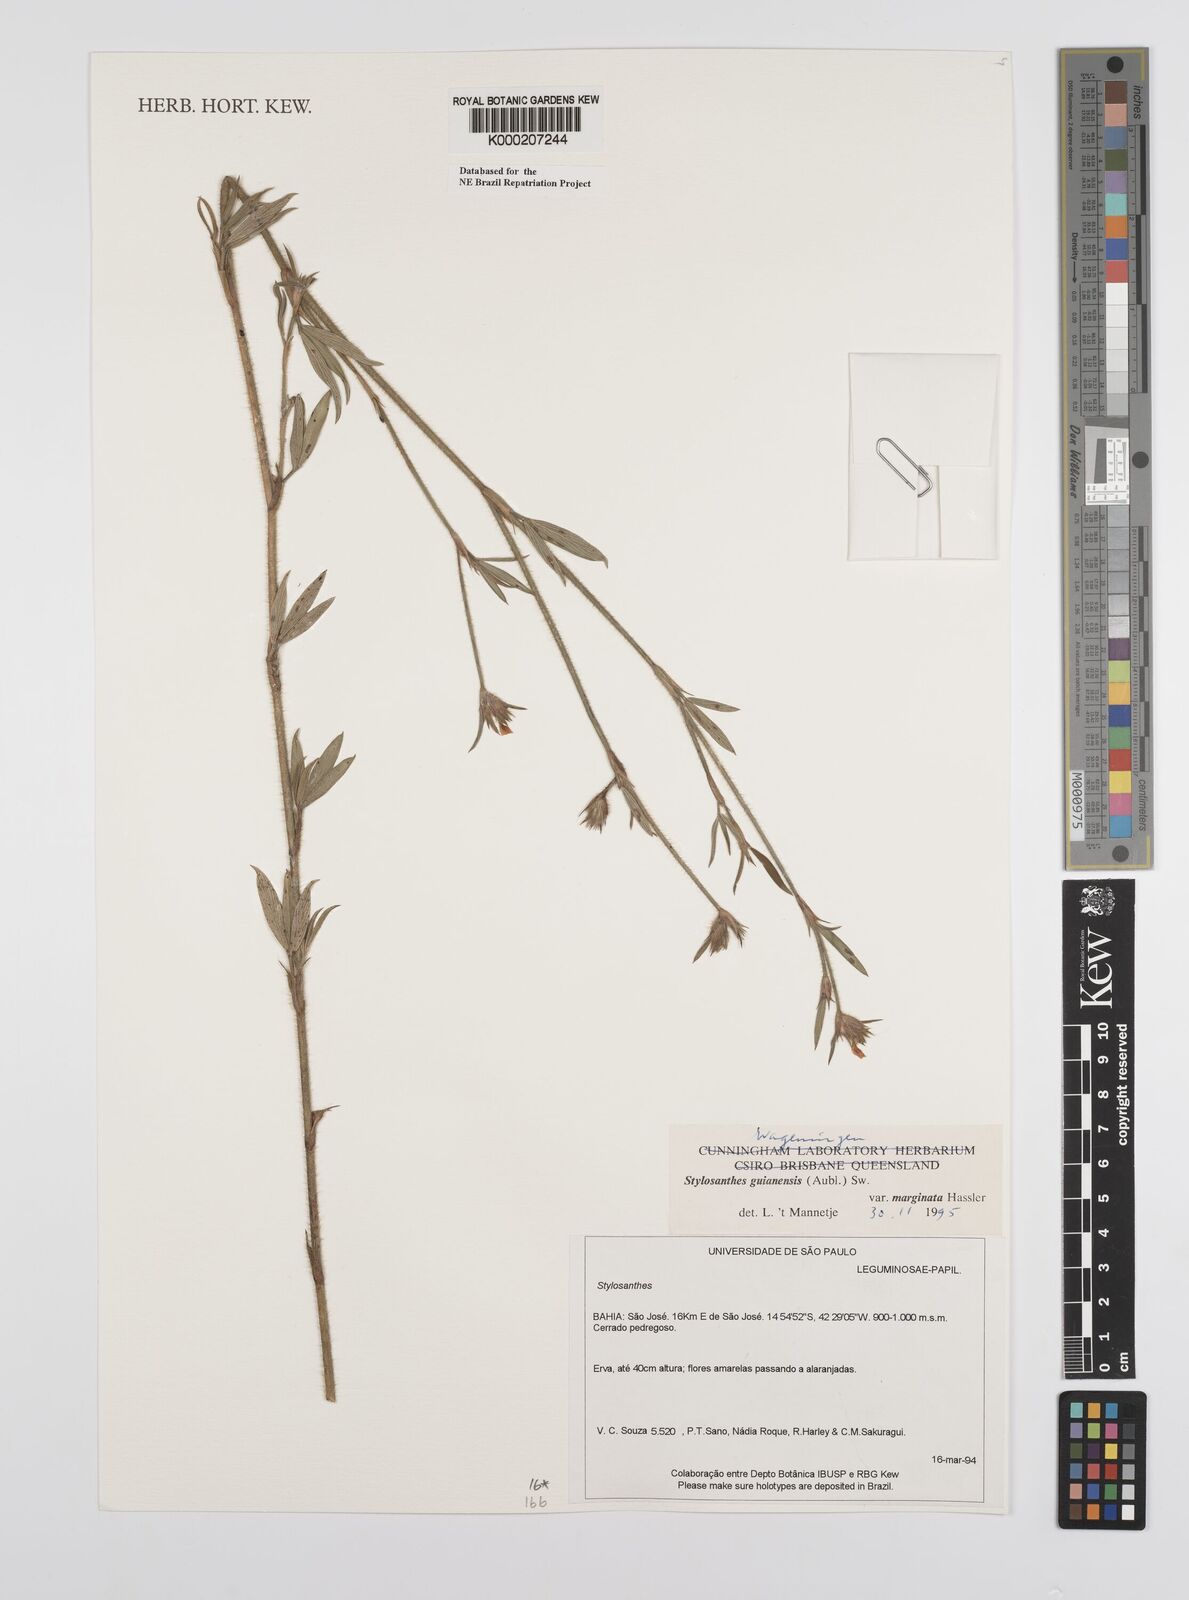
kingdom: Plantae
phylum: Tracheophyta
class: Magnoliopsida
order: Fabales
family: Fabaceae
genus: Stylosanthes
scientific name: Stylosanthes guianensis
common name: Pencil flower
